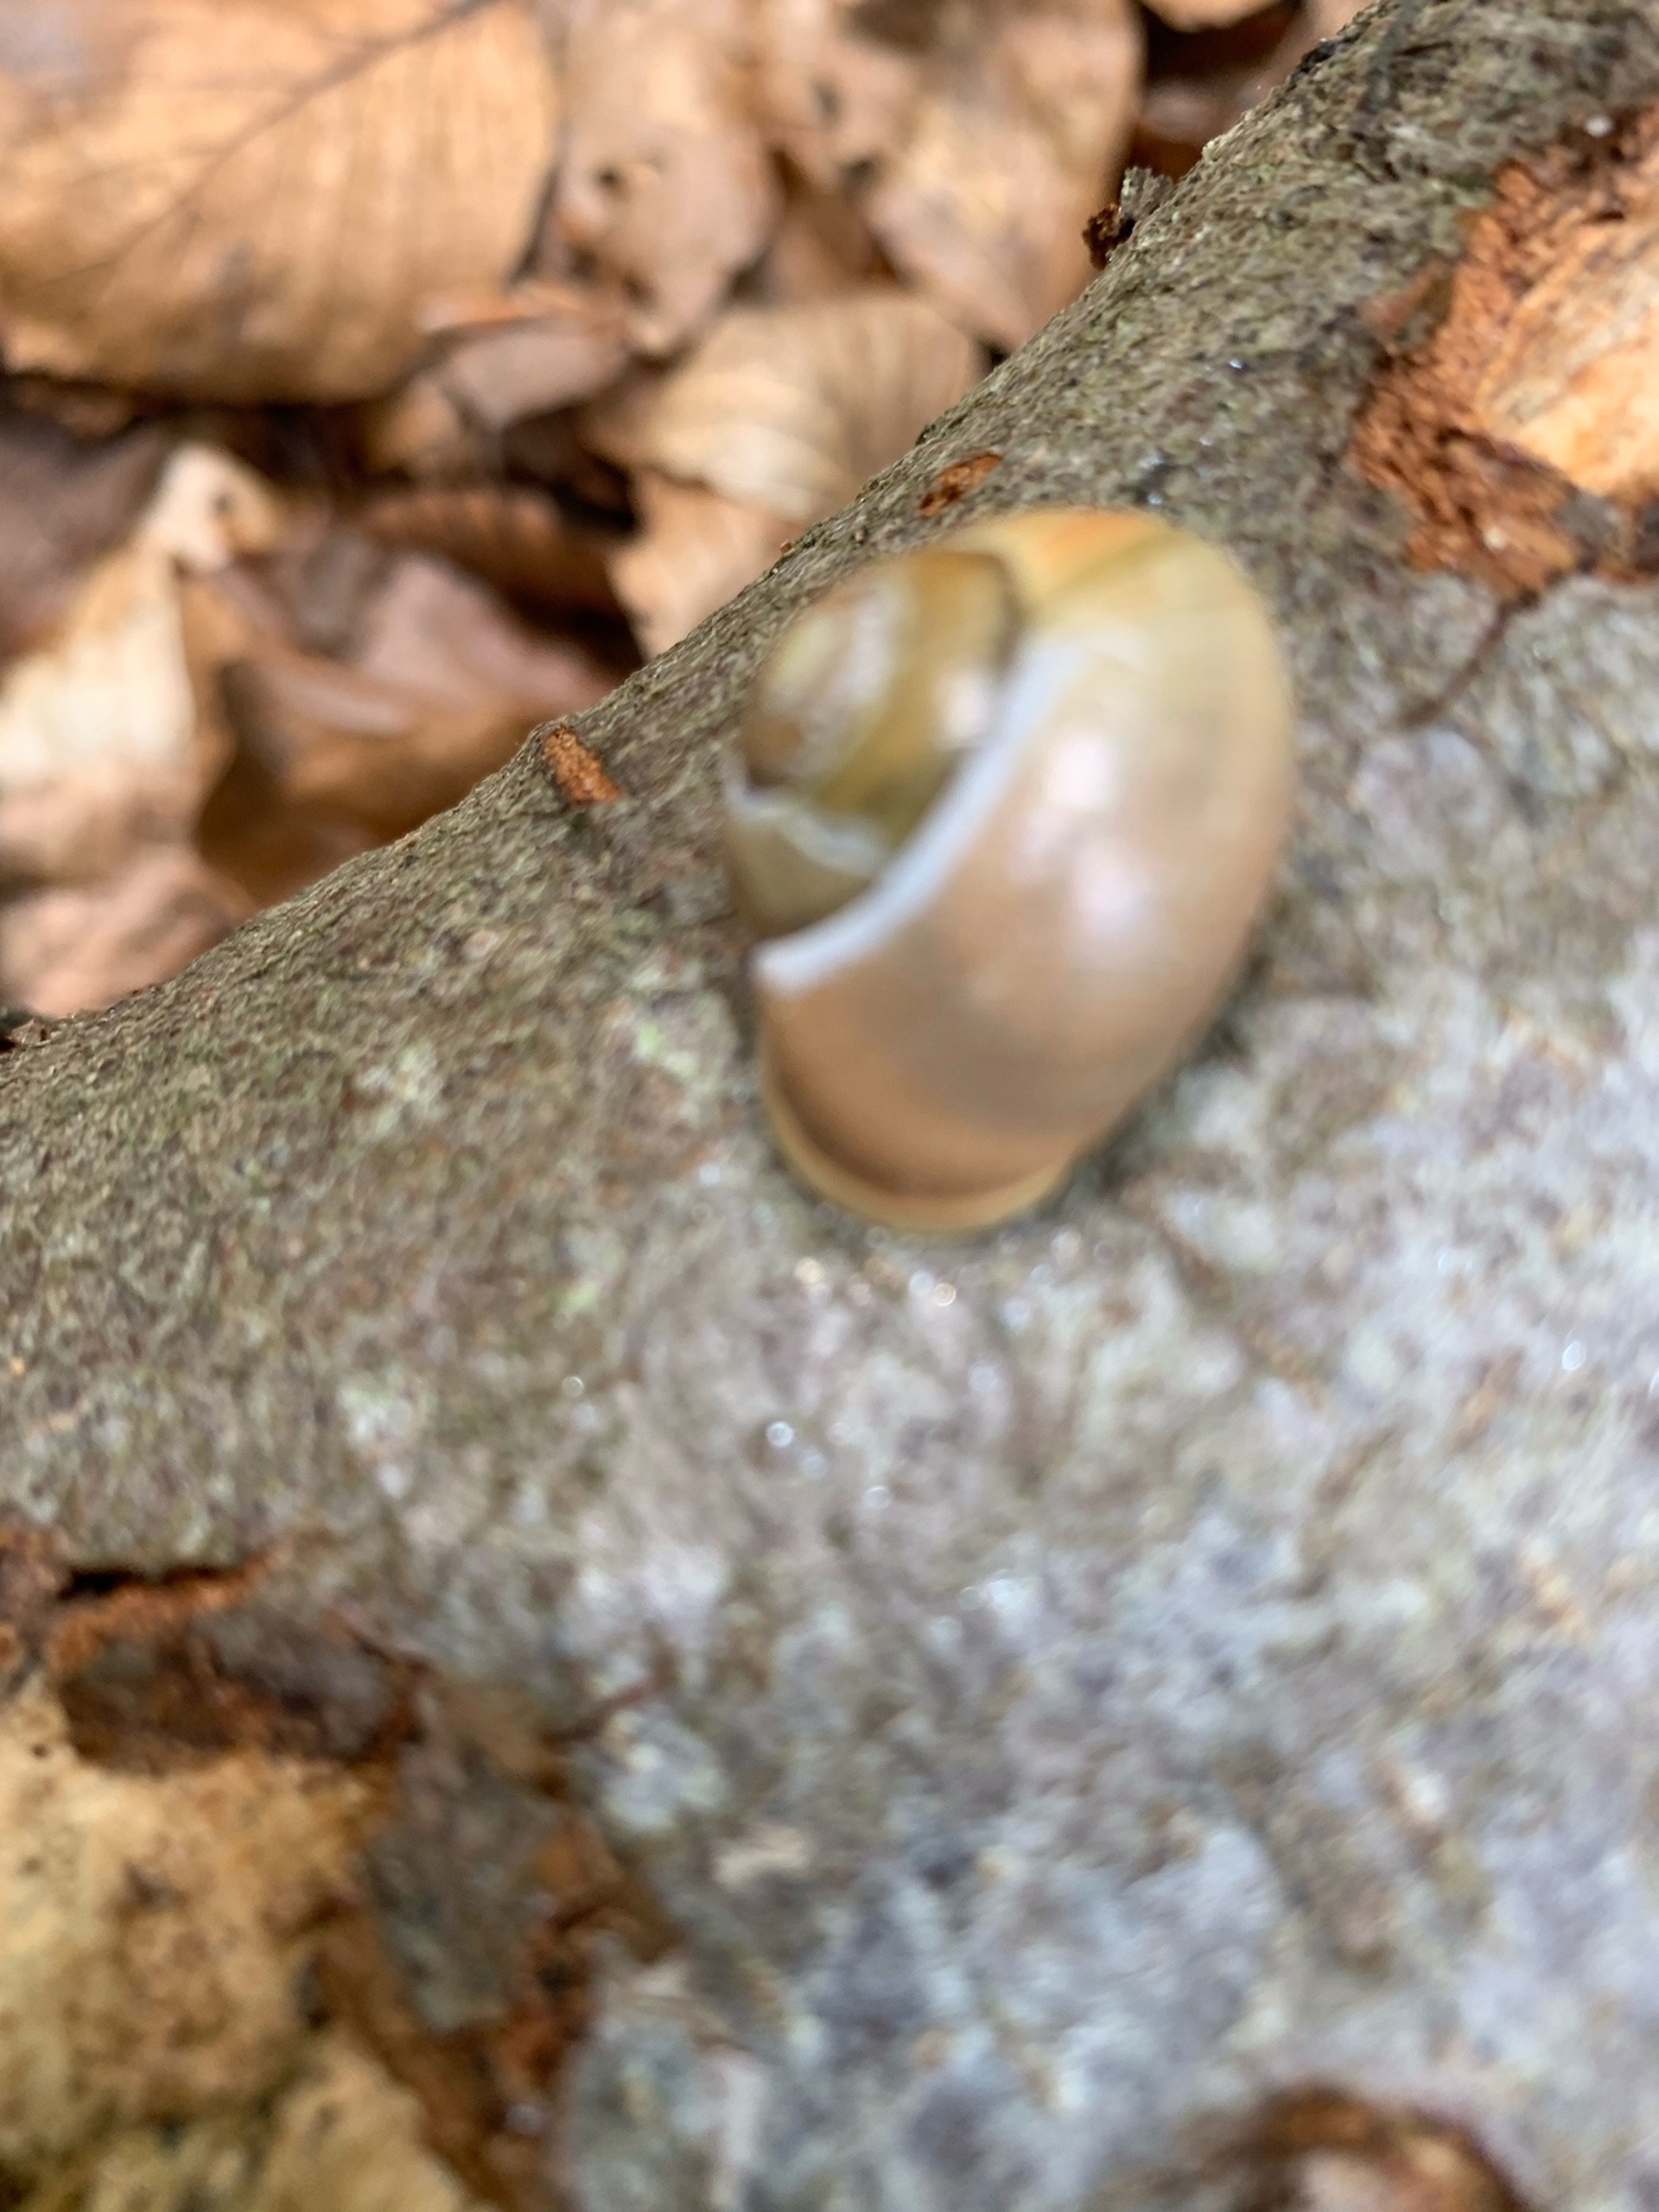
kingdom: Animalia
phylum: Mollusca
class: Gastropoda
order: Stylommatophora
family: Helicidae
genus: Cepaea
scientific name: Cepaea hortensis
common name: Havesnegl
